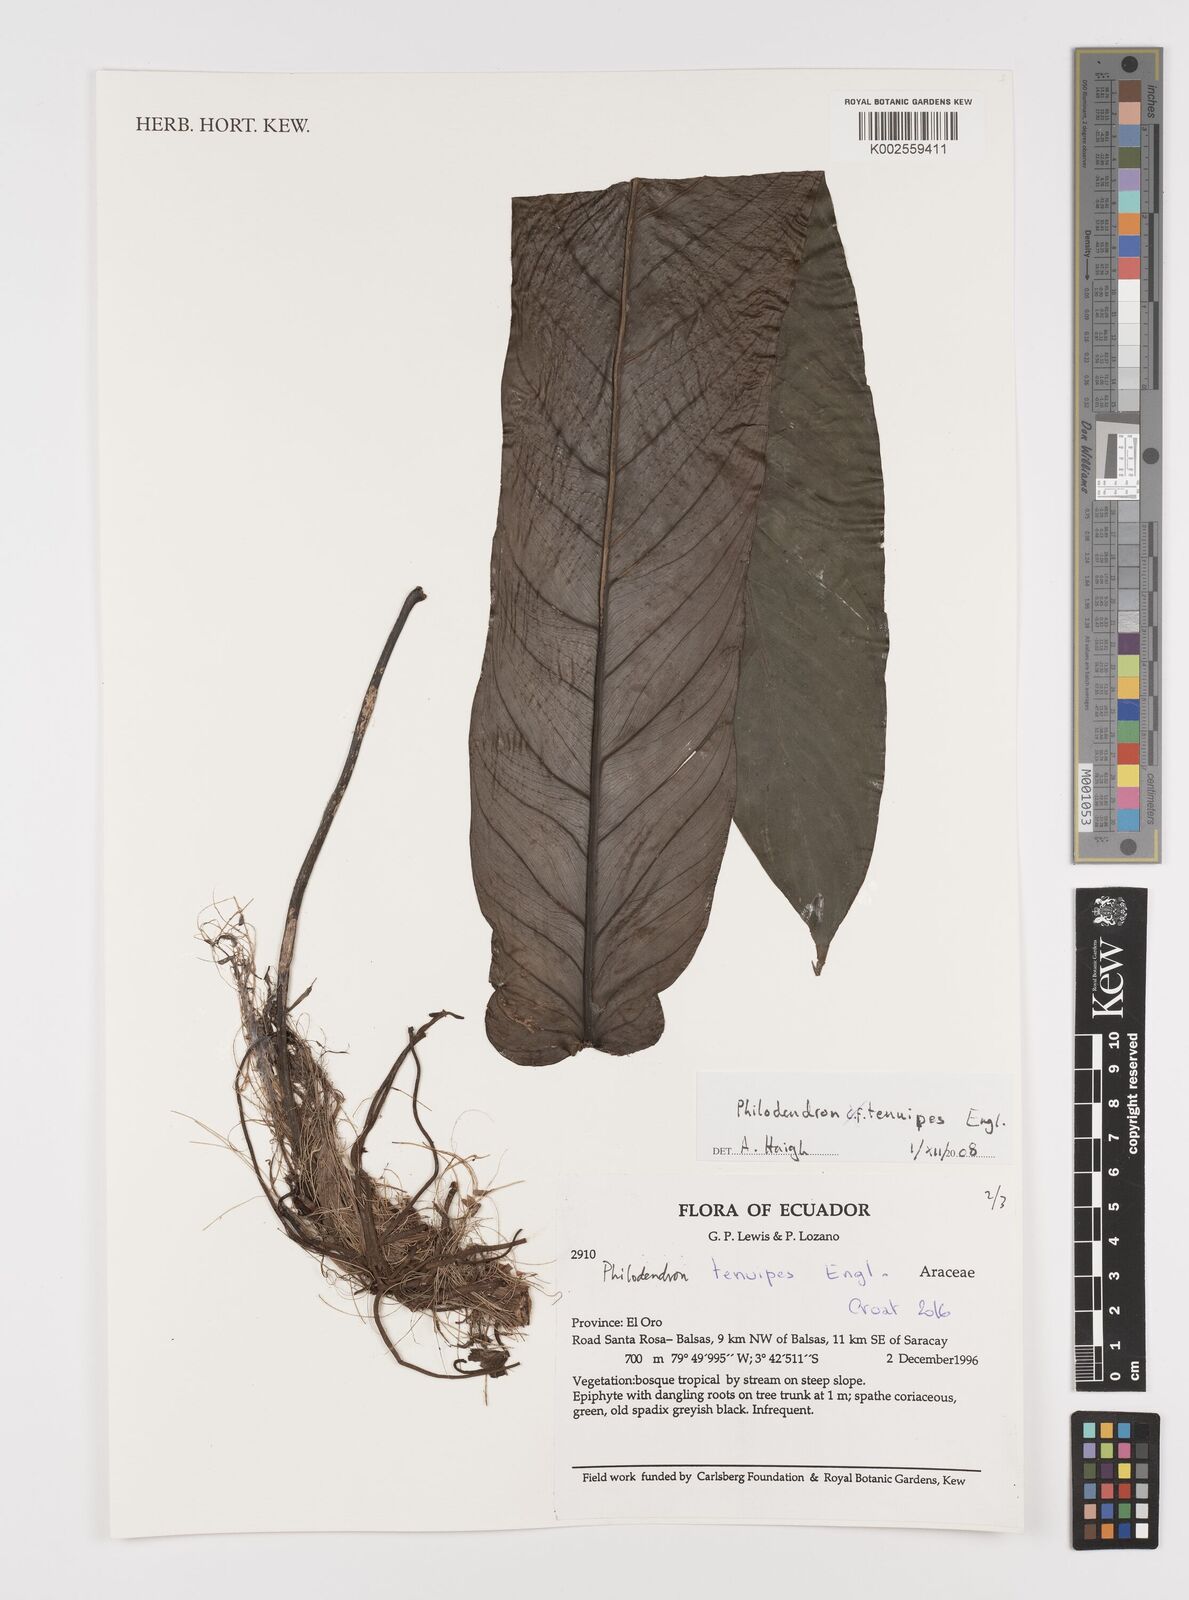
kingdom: Plantae
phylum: Tracheophyta
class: Liliopsida
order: Alismatales
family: Araceae
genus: Philodendron
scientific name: Philodendron tenuipes
